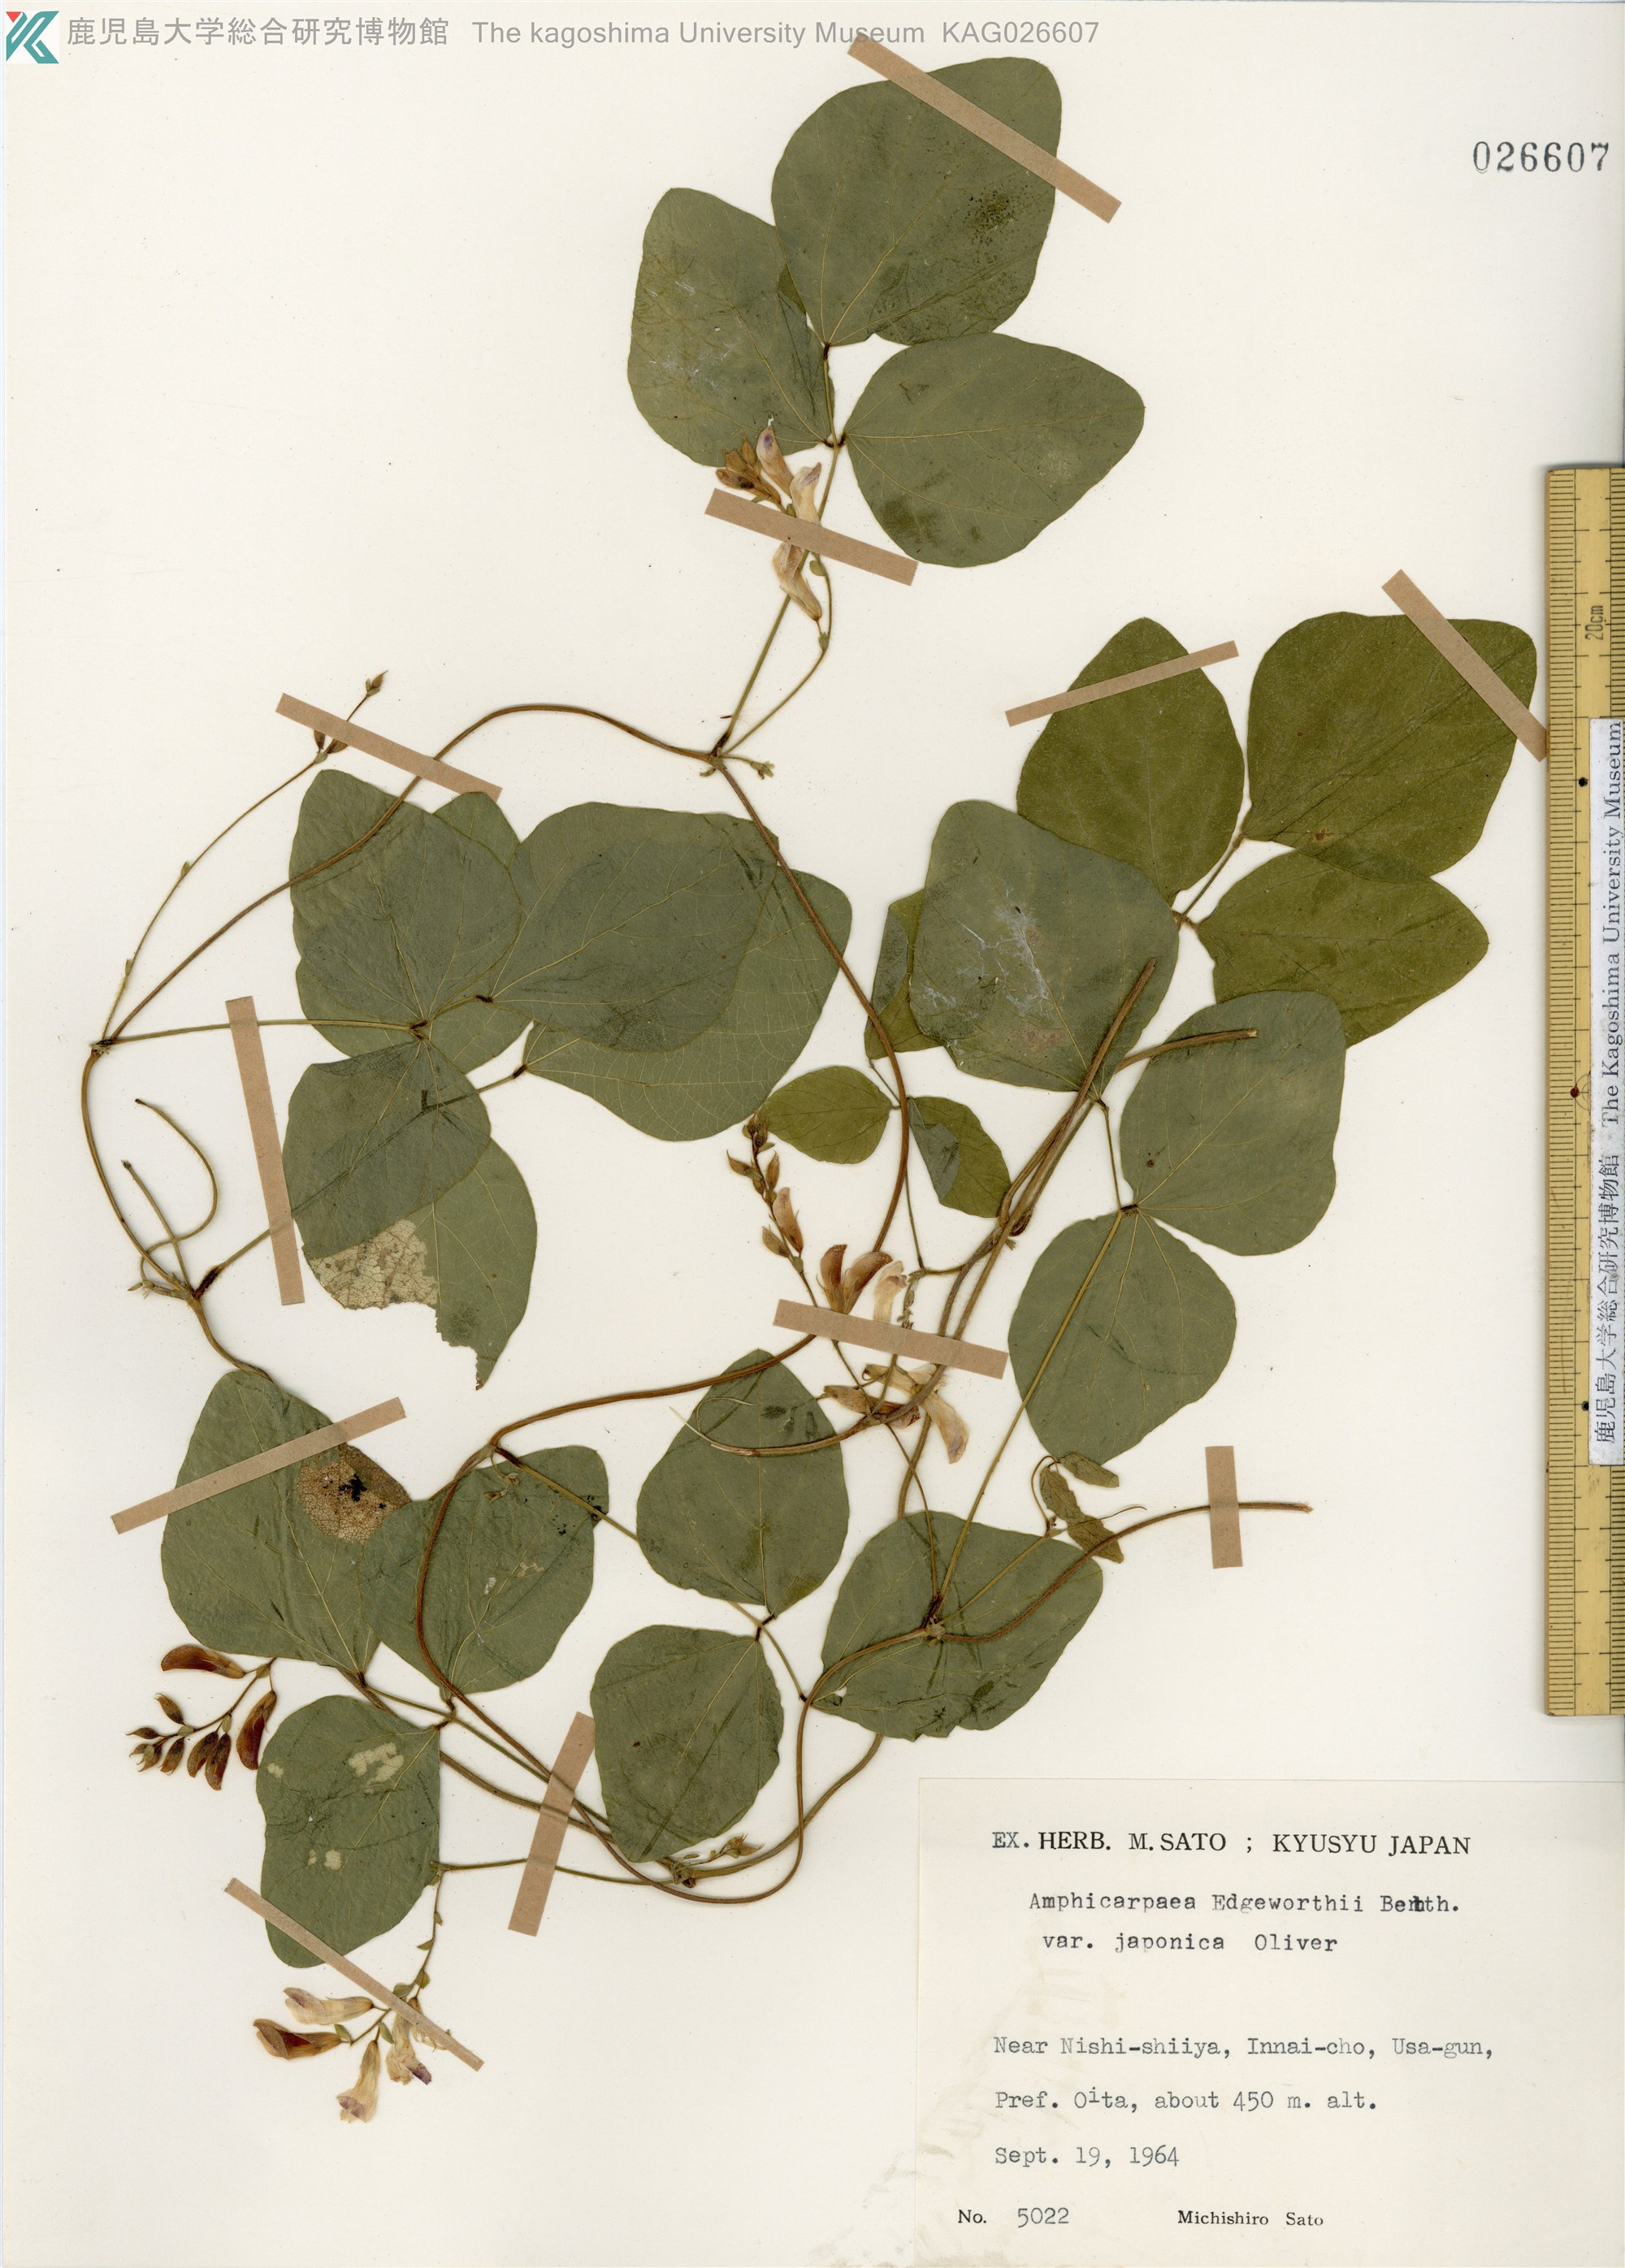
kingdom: Plantae
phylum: Tracheophyta
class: Magnoliopsida
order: Fabales
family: Fabaceae
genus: Amphicarpaea
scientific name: Amphicarpaea edgeworthii
